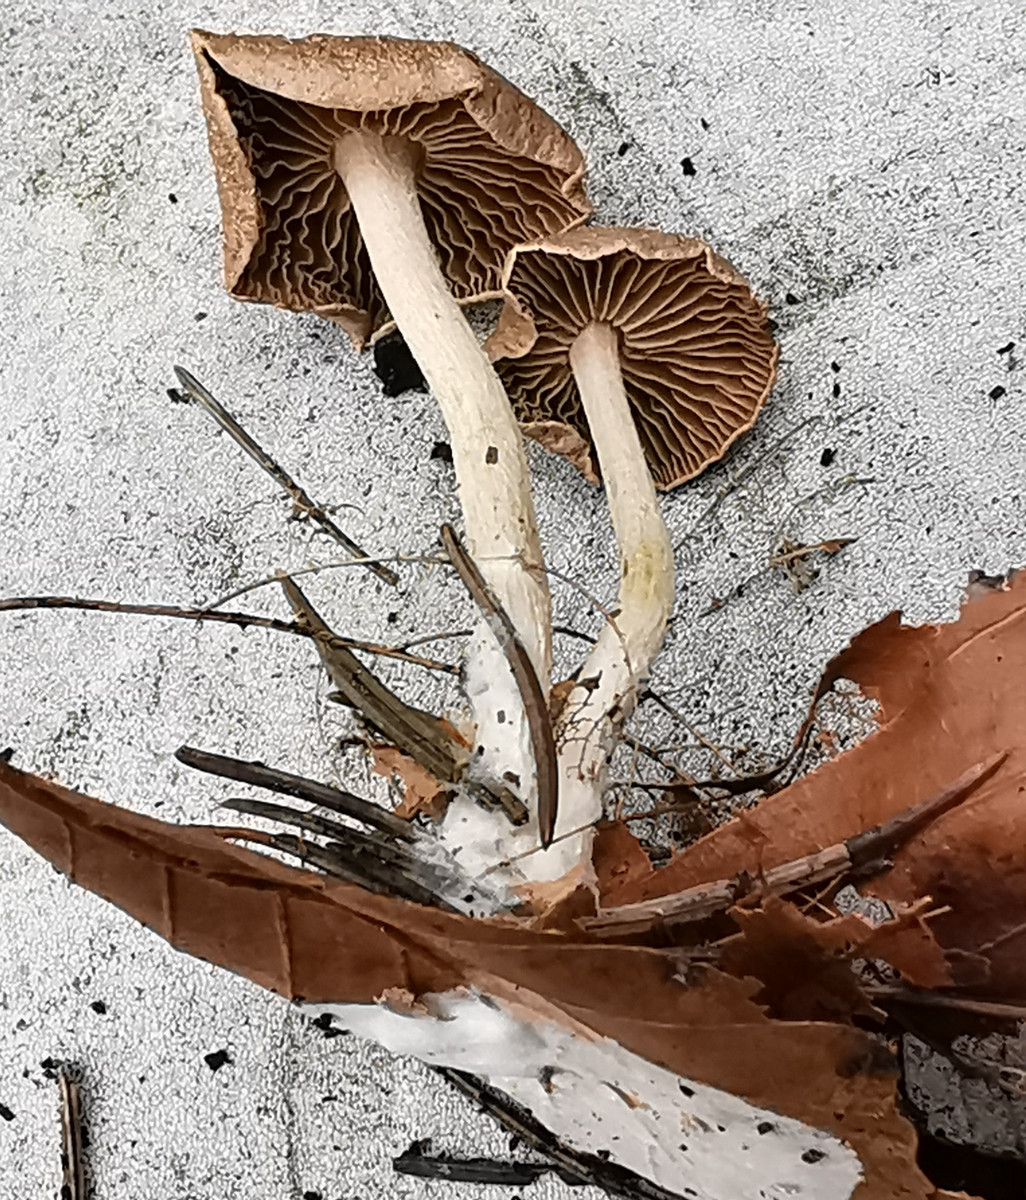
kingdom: Fungi
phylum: Basidiomycota
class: Agaricomycetes
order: Agaricales
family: Omphalotaceae
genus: Collybiopsis
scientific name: Collybiopsis peronata
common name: bestøvlet fladhat
